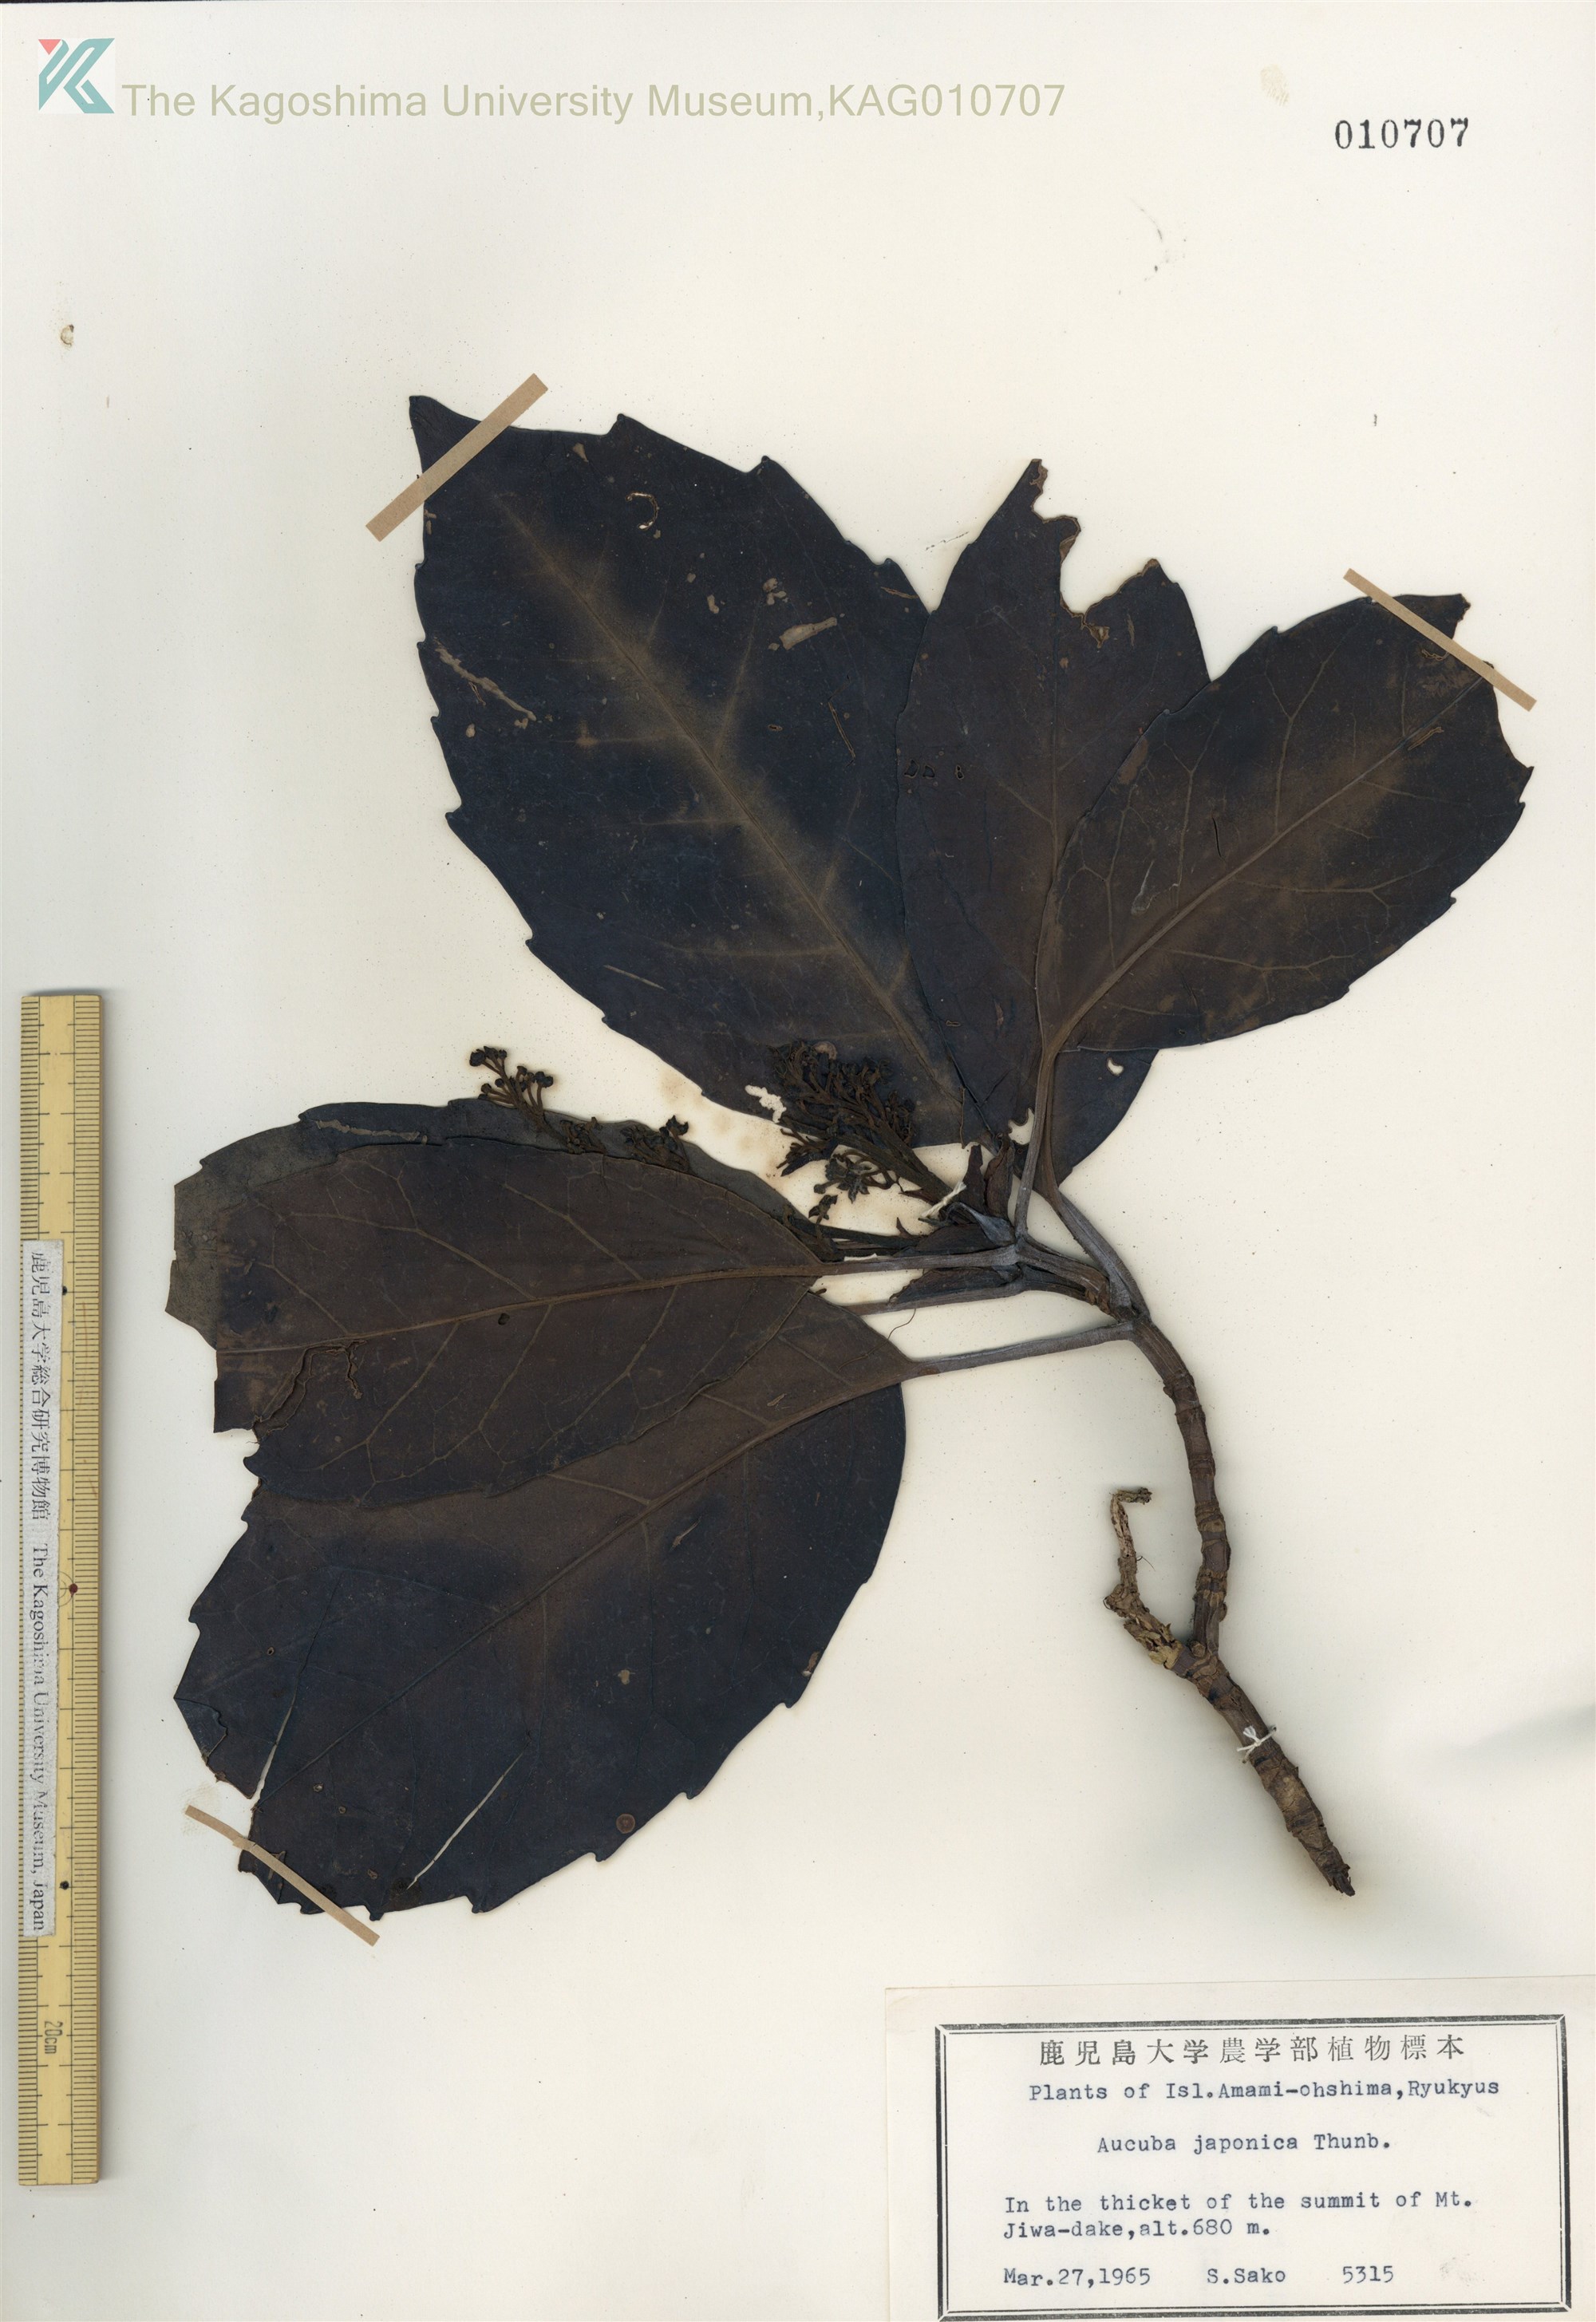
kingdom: Plantae
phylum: Tracheophyta
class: Magnoliopsida
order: Garryales
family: Garryaceae
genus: Aucuba
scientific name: Aucuba japonica
